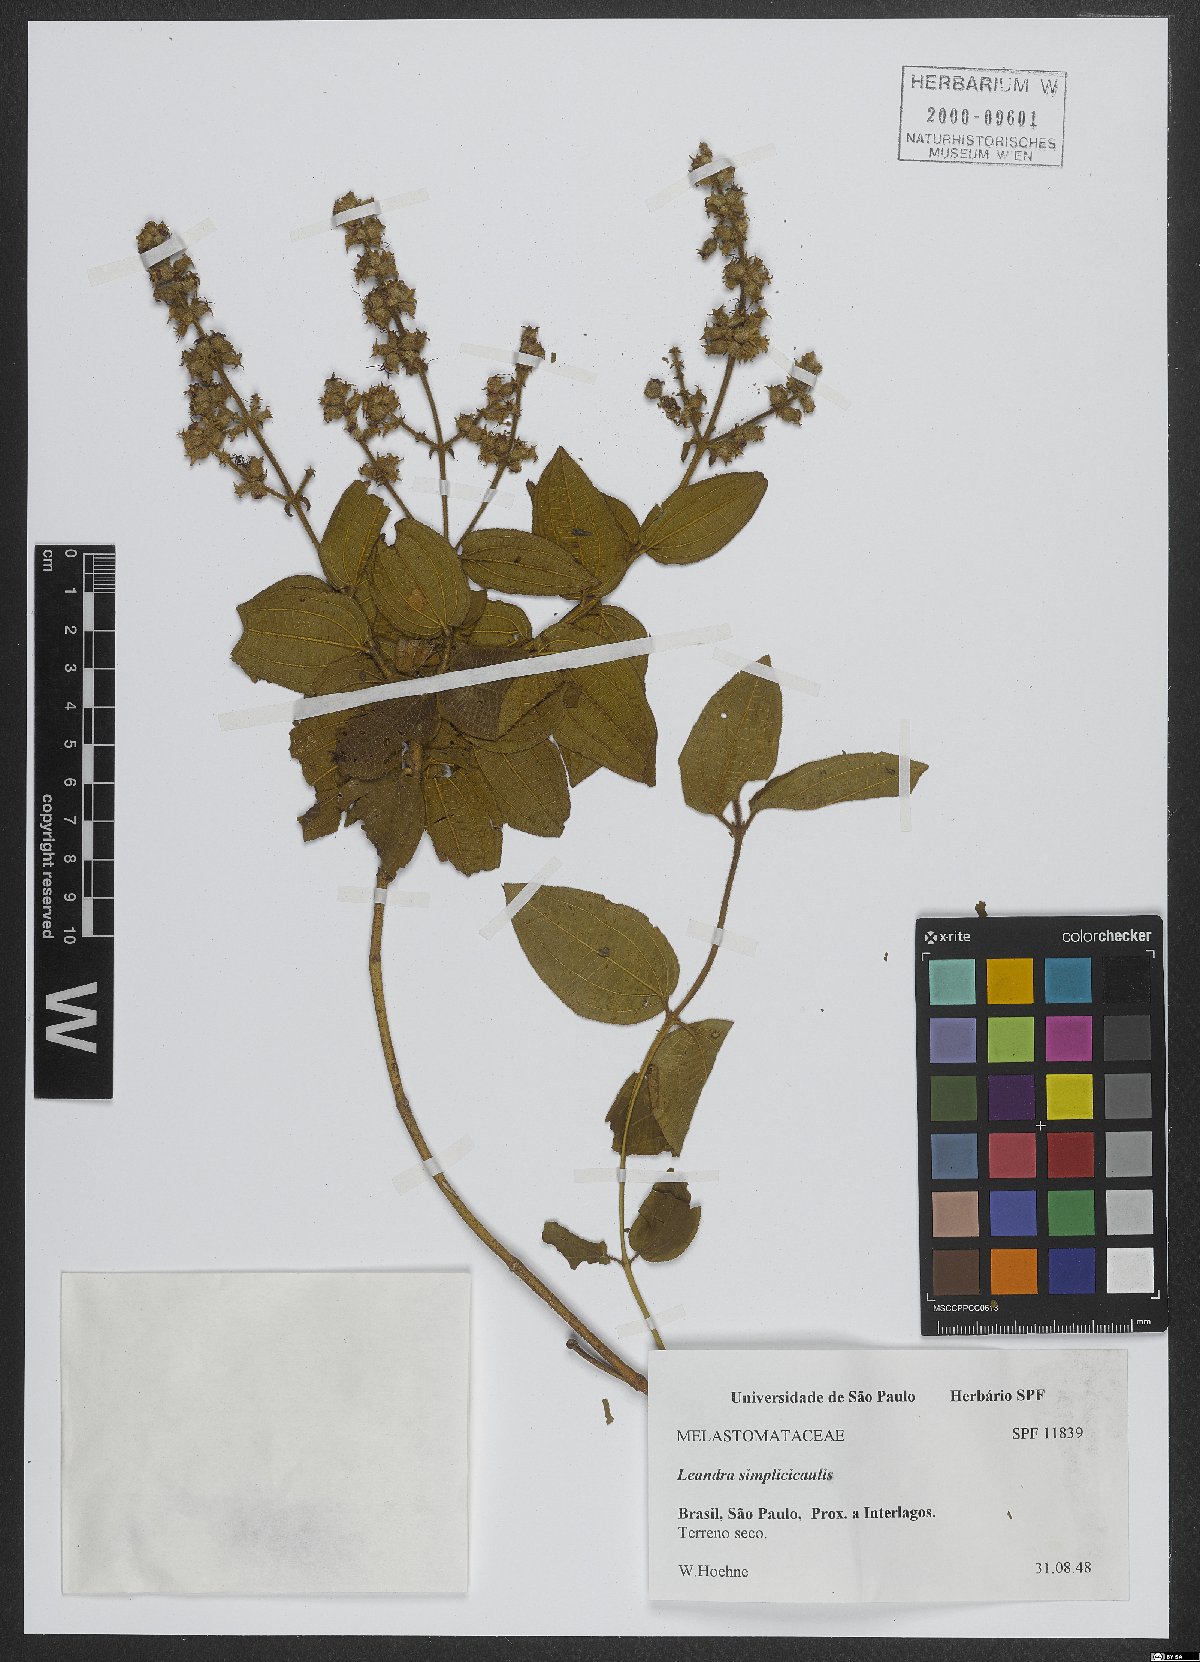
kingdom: Plantae
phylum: Tracheophyta
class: Magnoliopsida
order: Myrtales
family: Melastomataceae
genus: Miconia
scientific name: Miconia simplicicaulis
